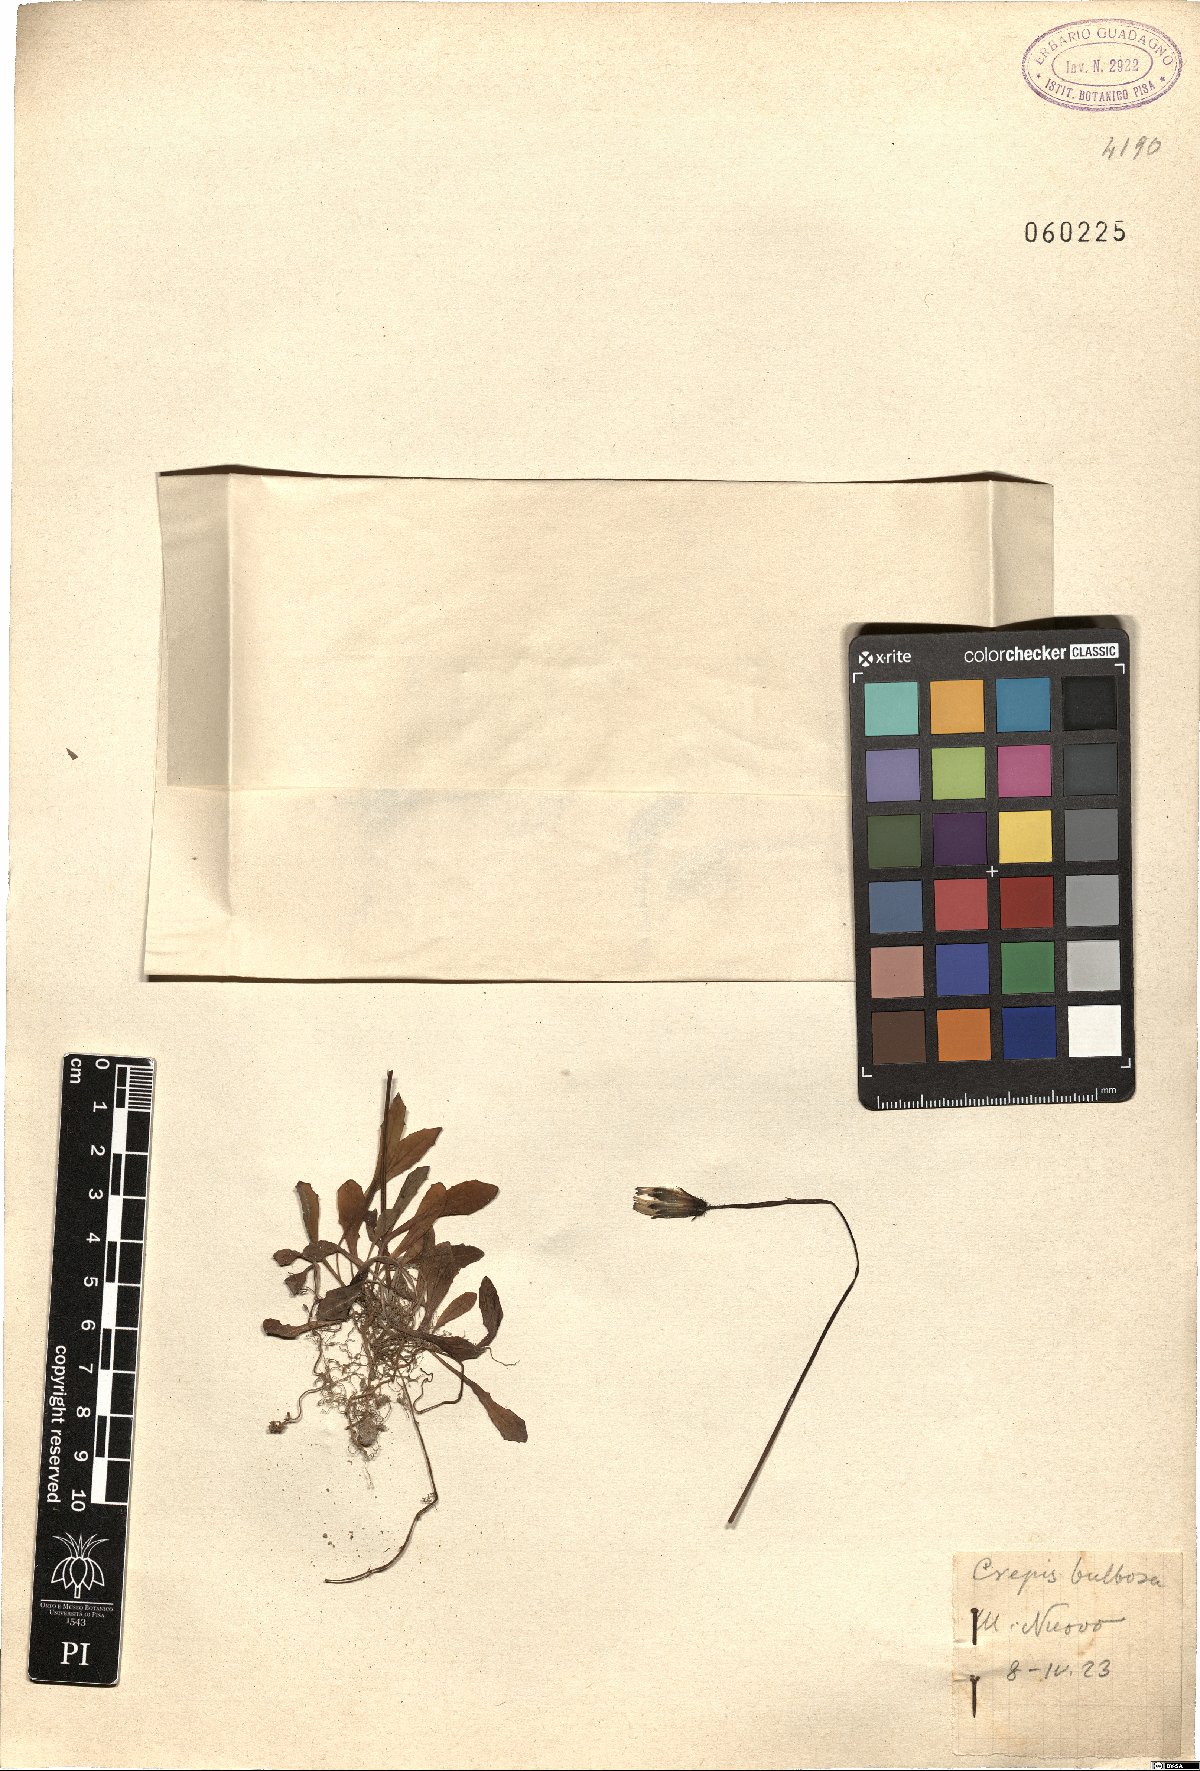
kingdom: Plantae
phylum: Tracheophyta
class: Magnoliopsida
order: Asterales
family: Asteraceae
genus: Aetheorhiza
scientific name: Aetheorhiza bulbosa
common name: Tuberous hawk's-beard
